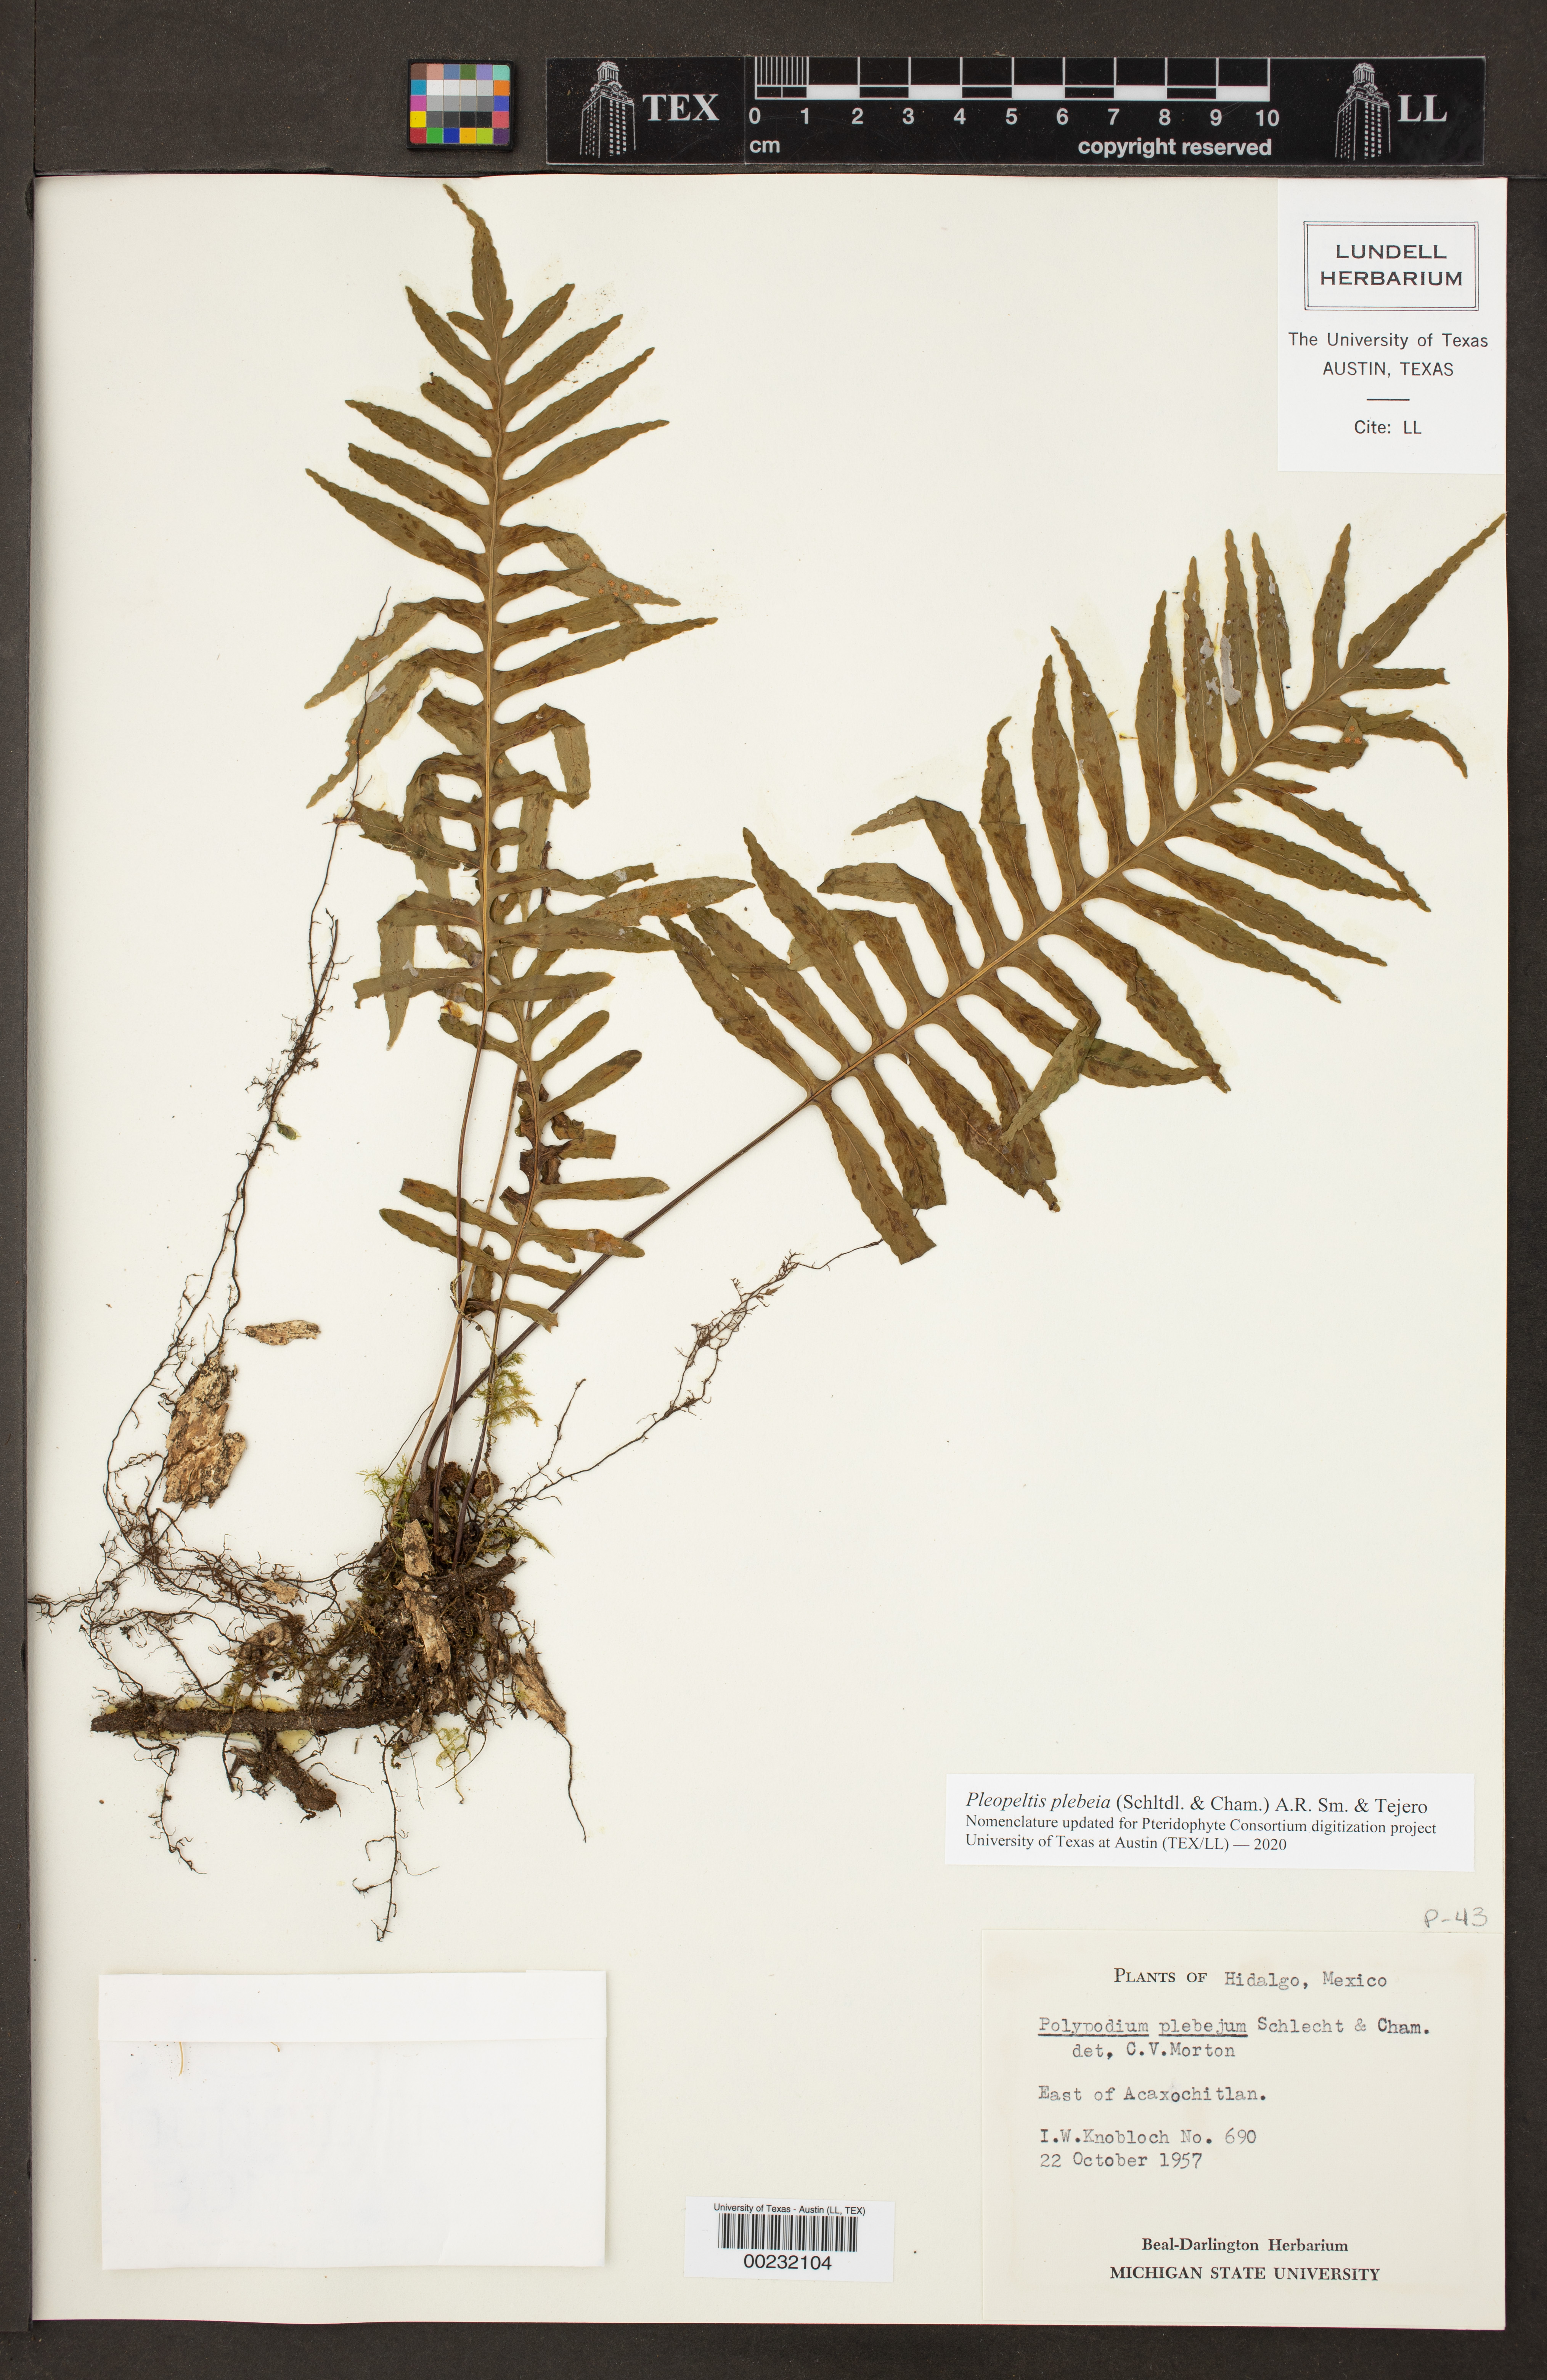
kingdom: Plantae
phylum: Tracheophyta
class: Polypodiopsida
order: Polypodiales
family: Polypodiaceae
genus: Pleopeltis
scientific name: Pleopeltis plebeia
